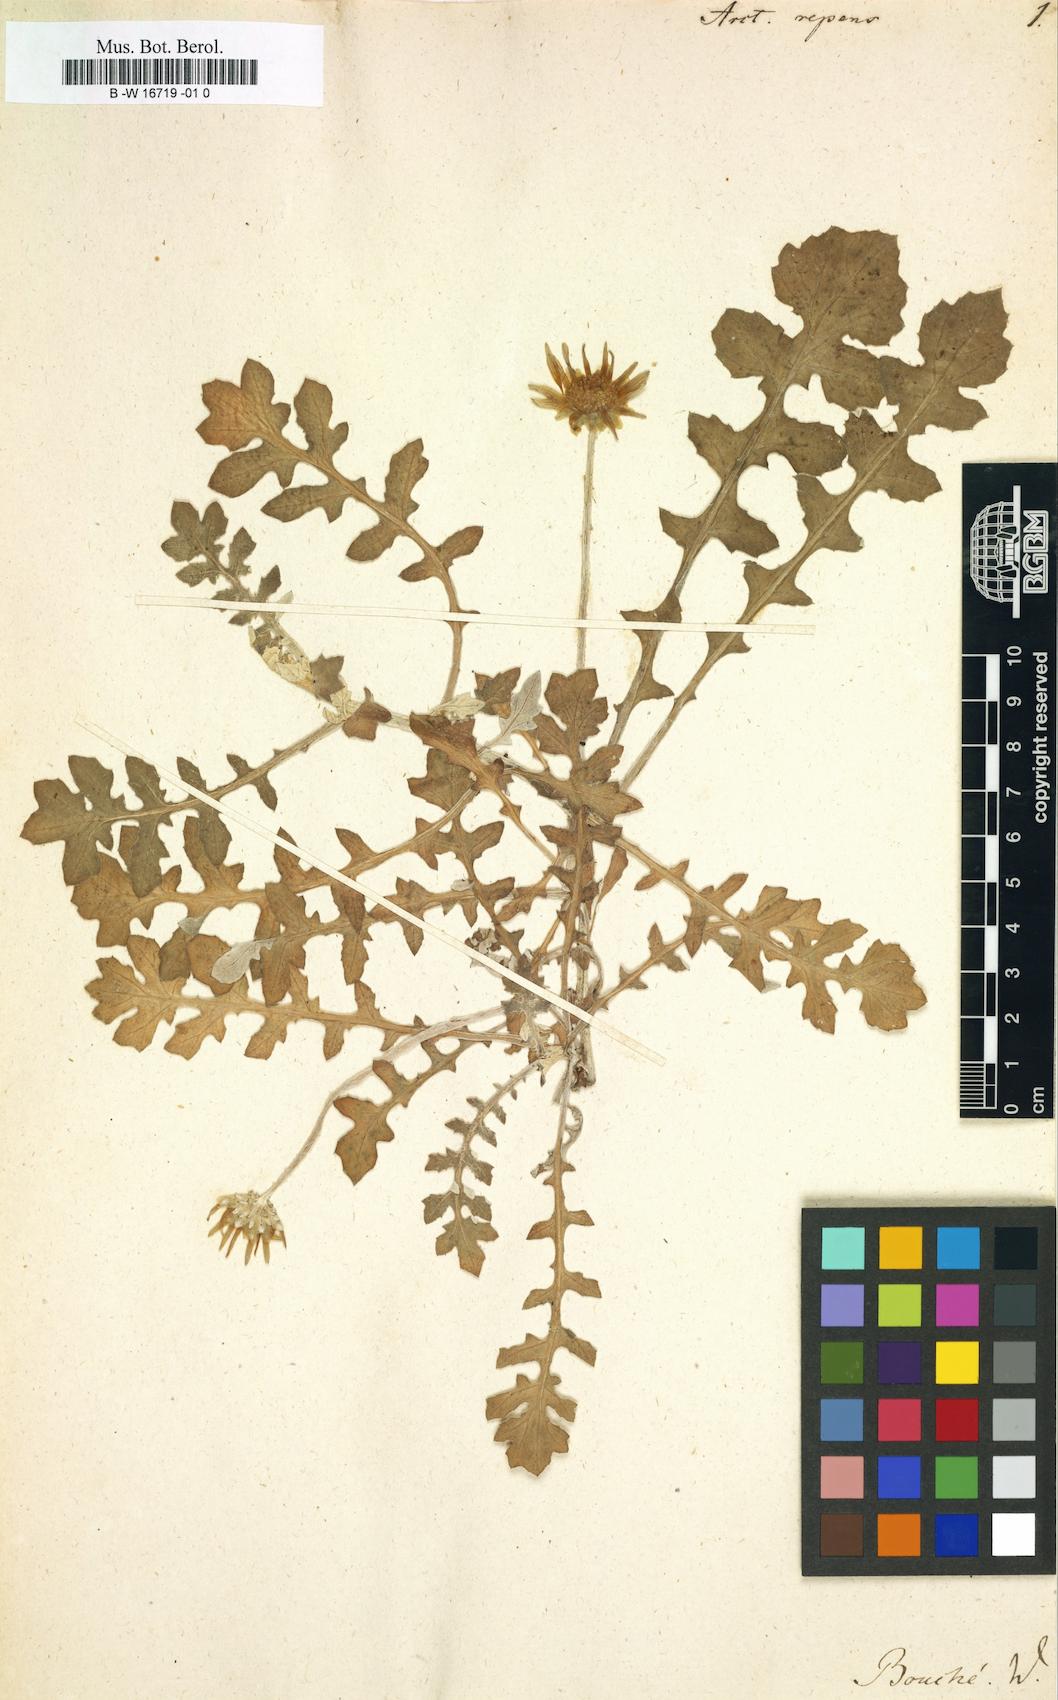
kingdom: Plantae
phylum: Tracheophyta
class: Magnoliopsida
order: Asterales
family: Asteraceae
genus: Arctotheca
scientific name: Arctotheca prostrata
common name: Capeweed
